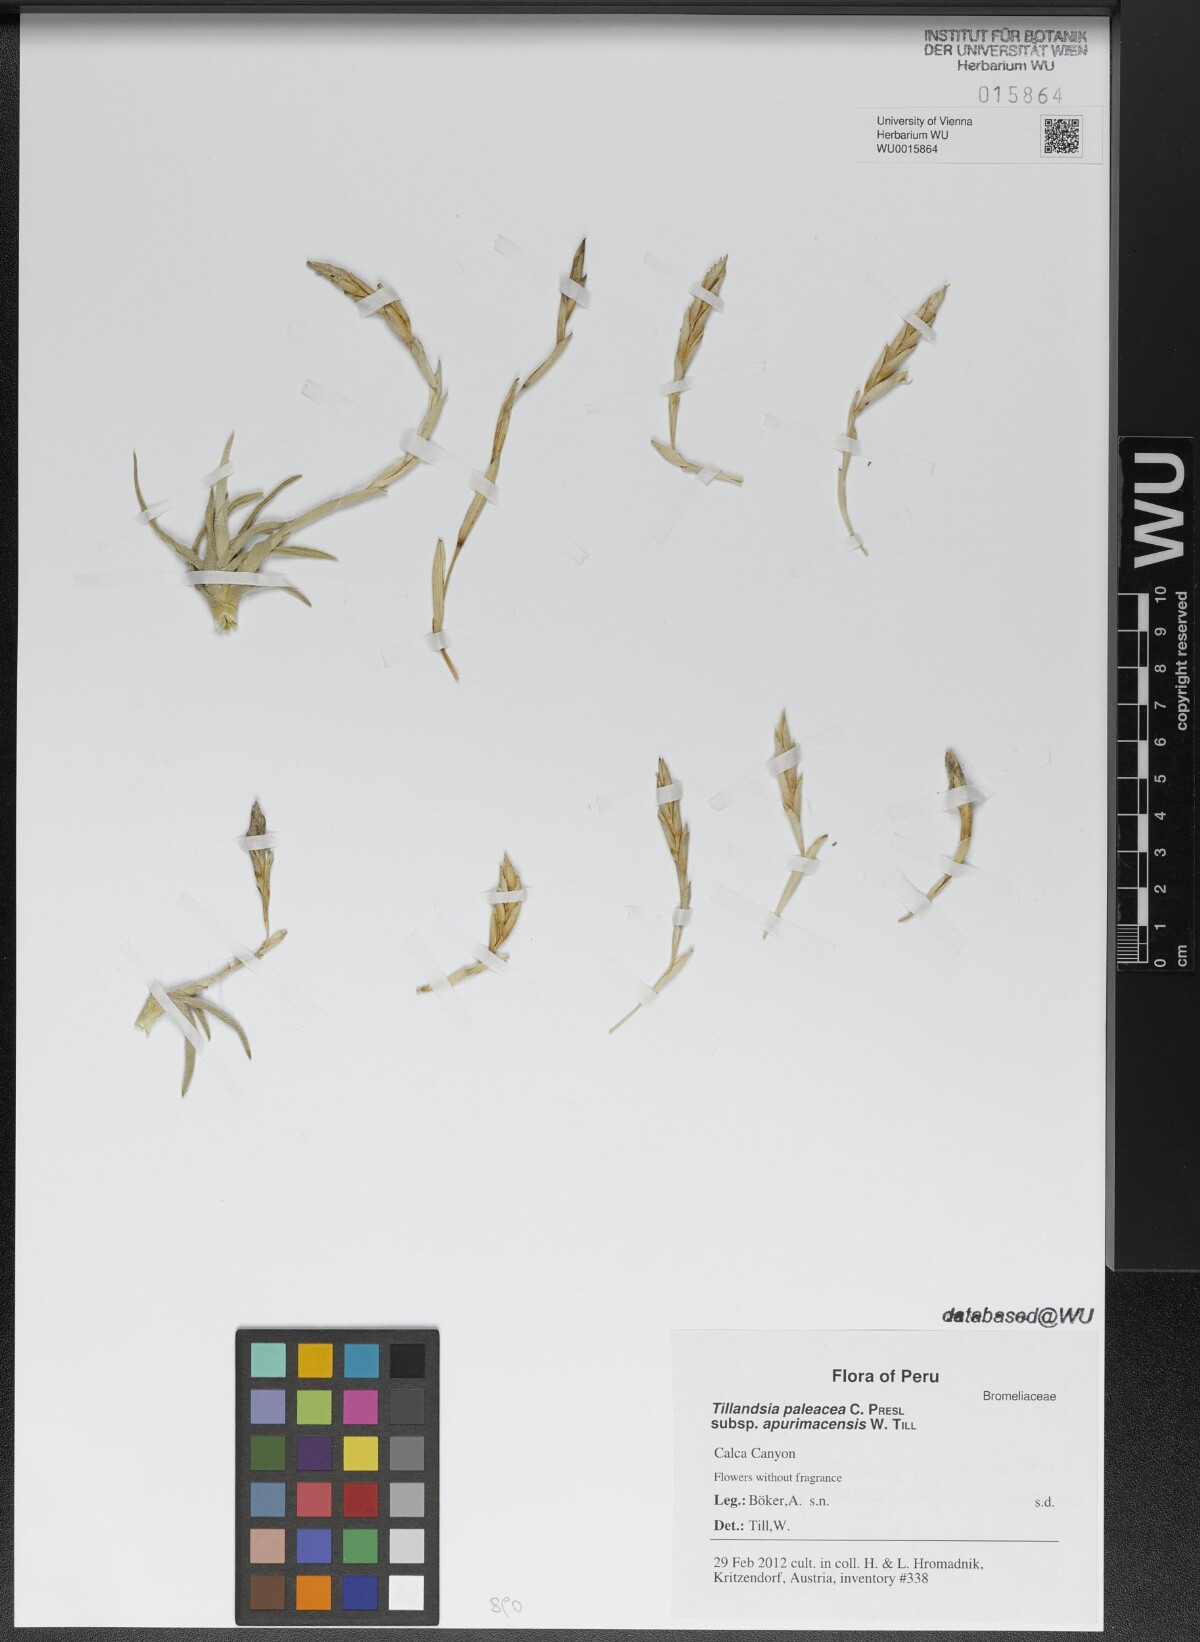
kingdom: Plantae
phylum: Tracheophyta
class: Liliopsida
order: Poales
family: Bromeliaceae
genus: Tillandsia
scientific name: Tillandsia paleacea
